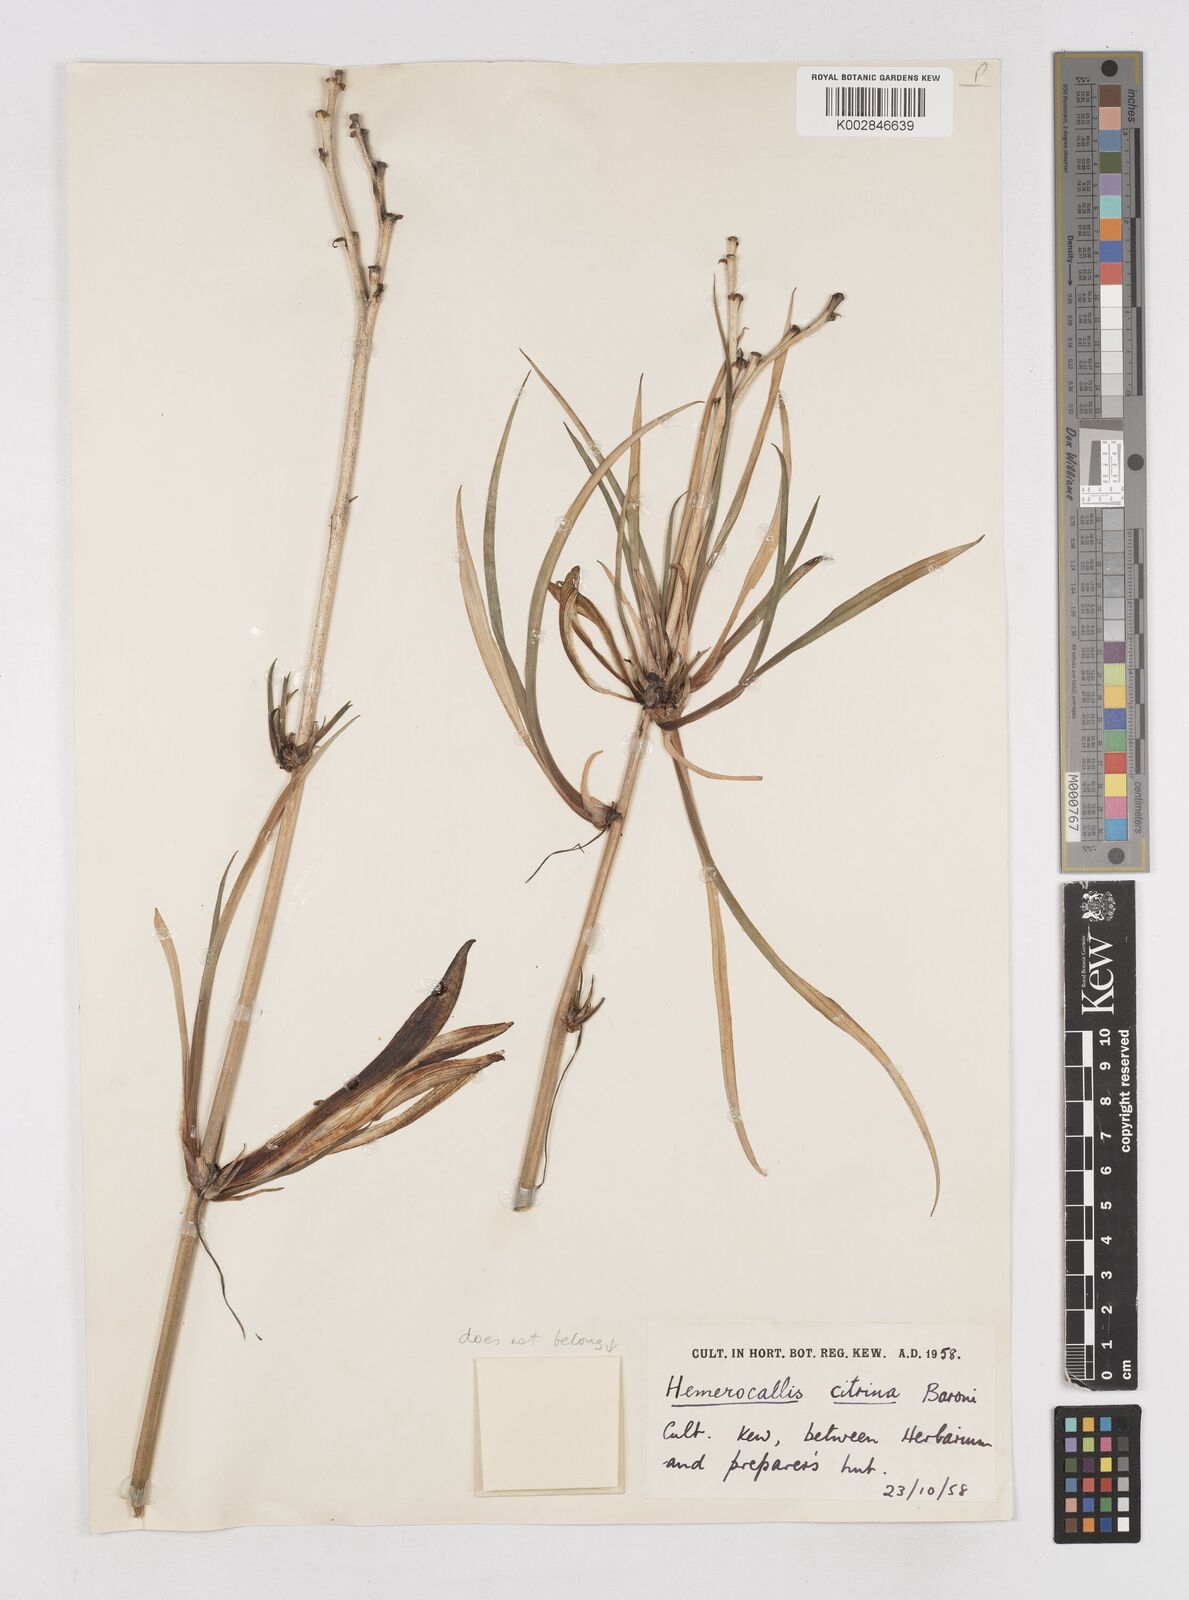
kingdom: Plantae
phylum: Tracheophyta
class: Liliopsida
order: Asparagales
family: Asphodelaceae
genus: Hemerocallis
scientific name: Hemerocallis citrina
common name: Citron day-lily
